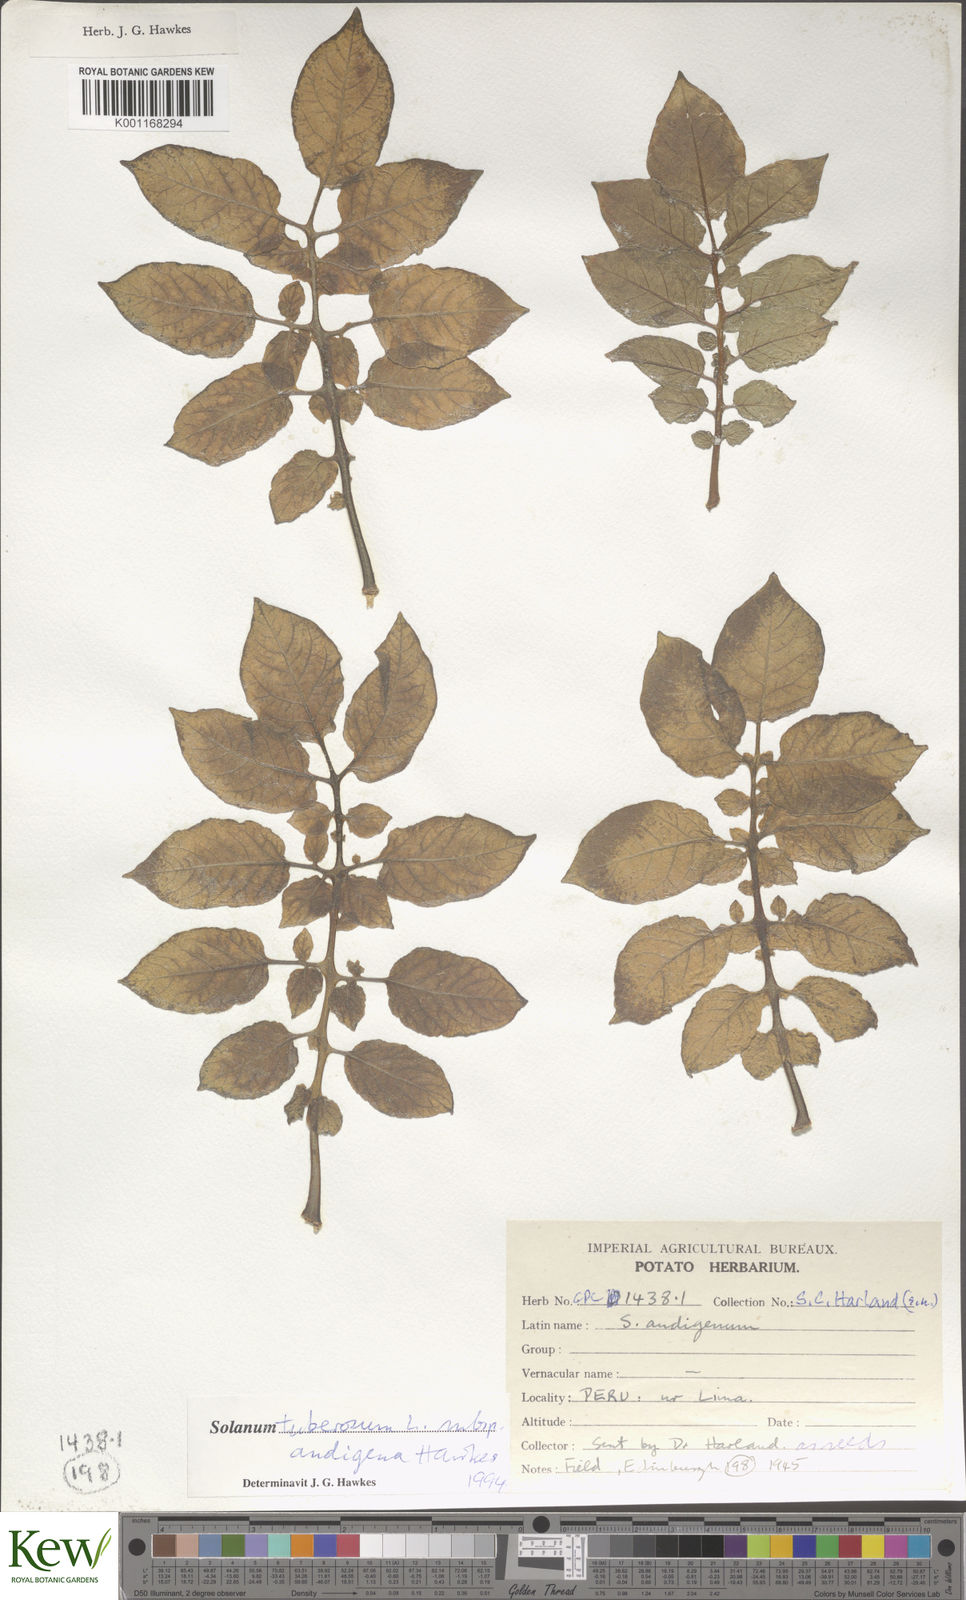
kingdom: Plantae
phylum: Tracheophyta
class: Magnoliopsida
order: Solanales
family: Solanaceae
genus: Solanum
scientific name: Solanum tuberosum
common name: Potato
